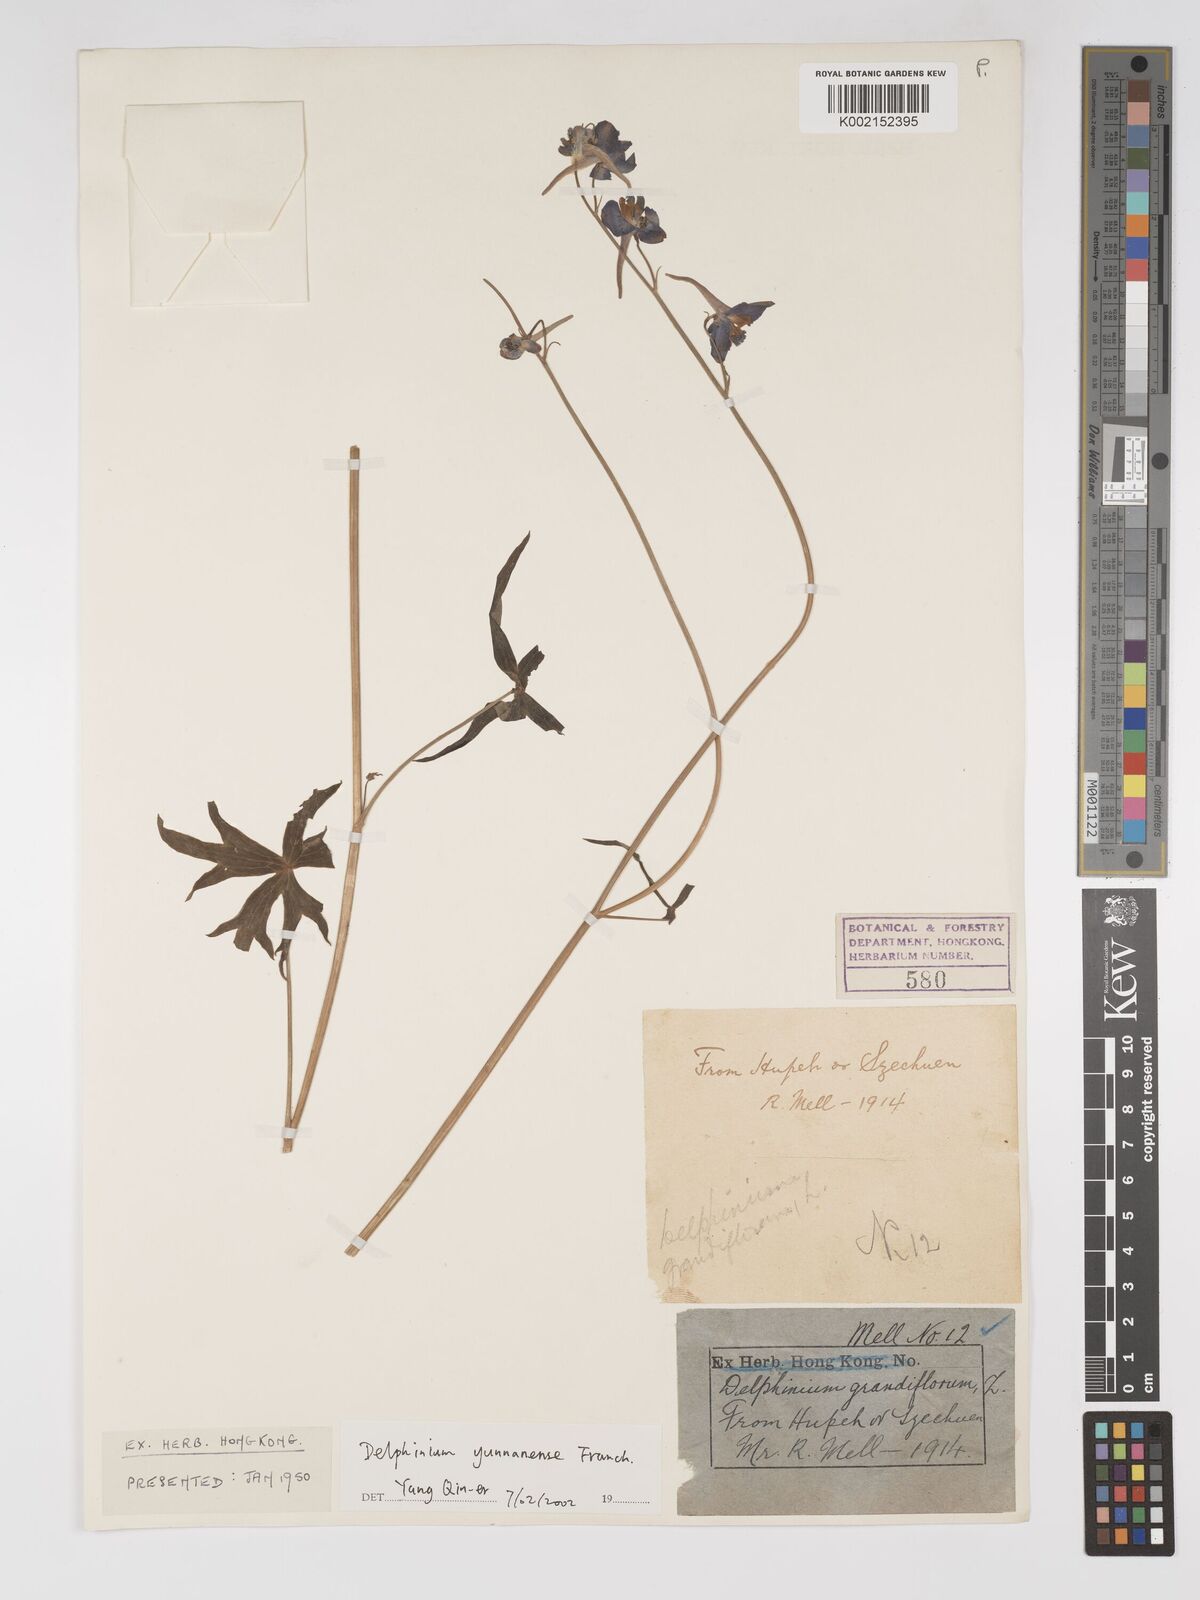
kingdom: Plantae
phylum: Tracheophyta
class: Magnoliopsida
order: Ranunculales
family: Ranunculaceae
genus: Delphinium
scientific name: Delphinium yunnanense
